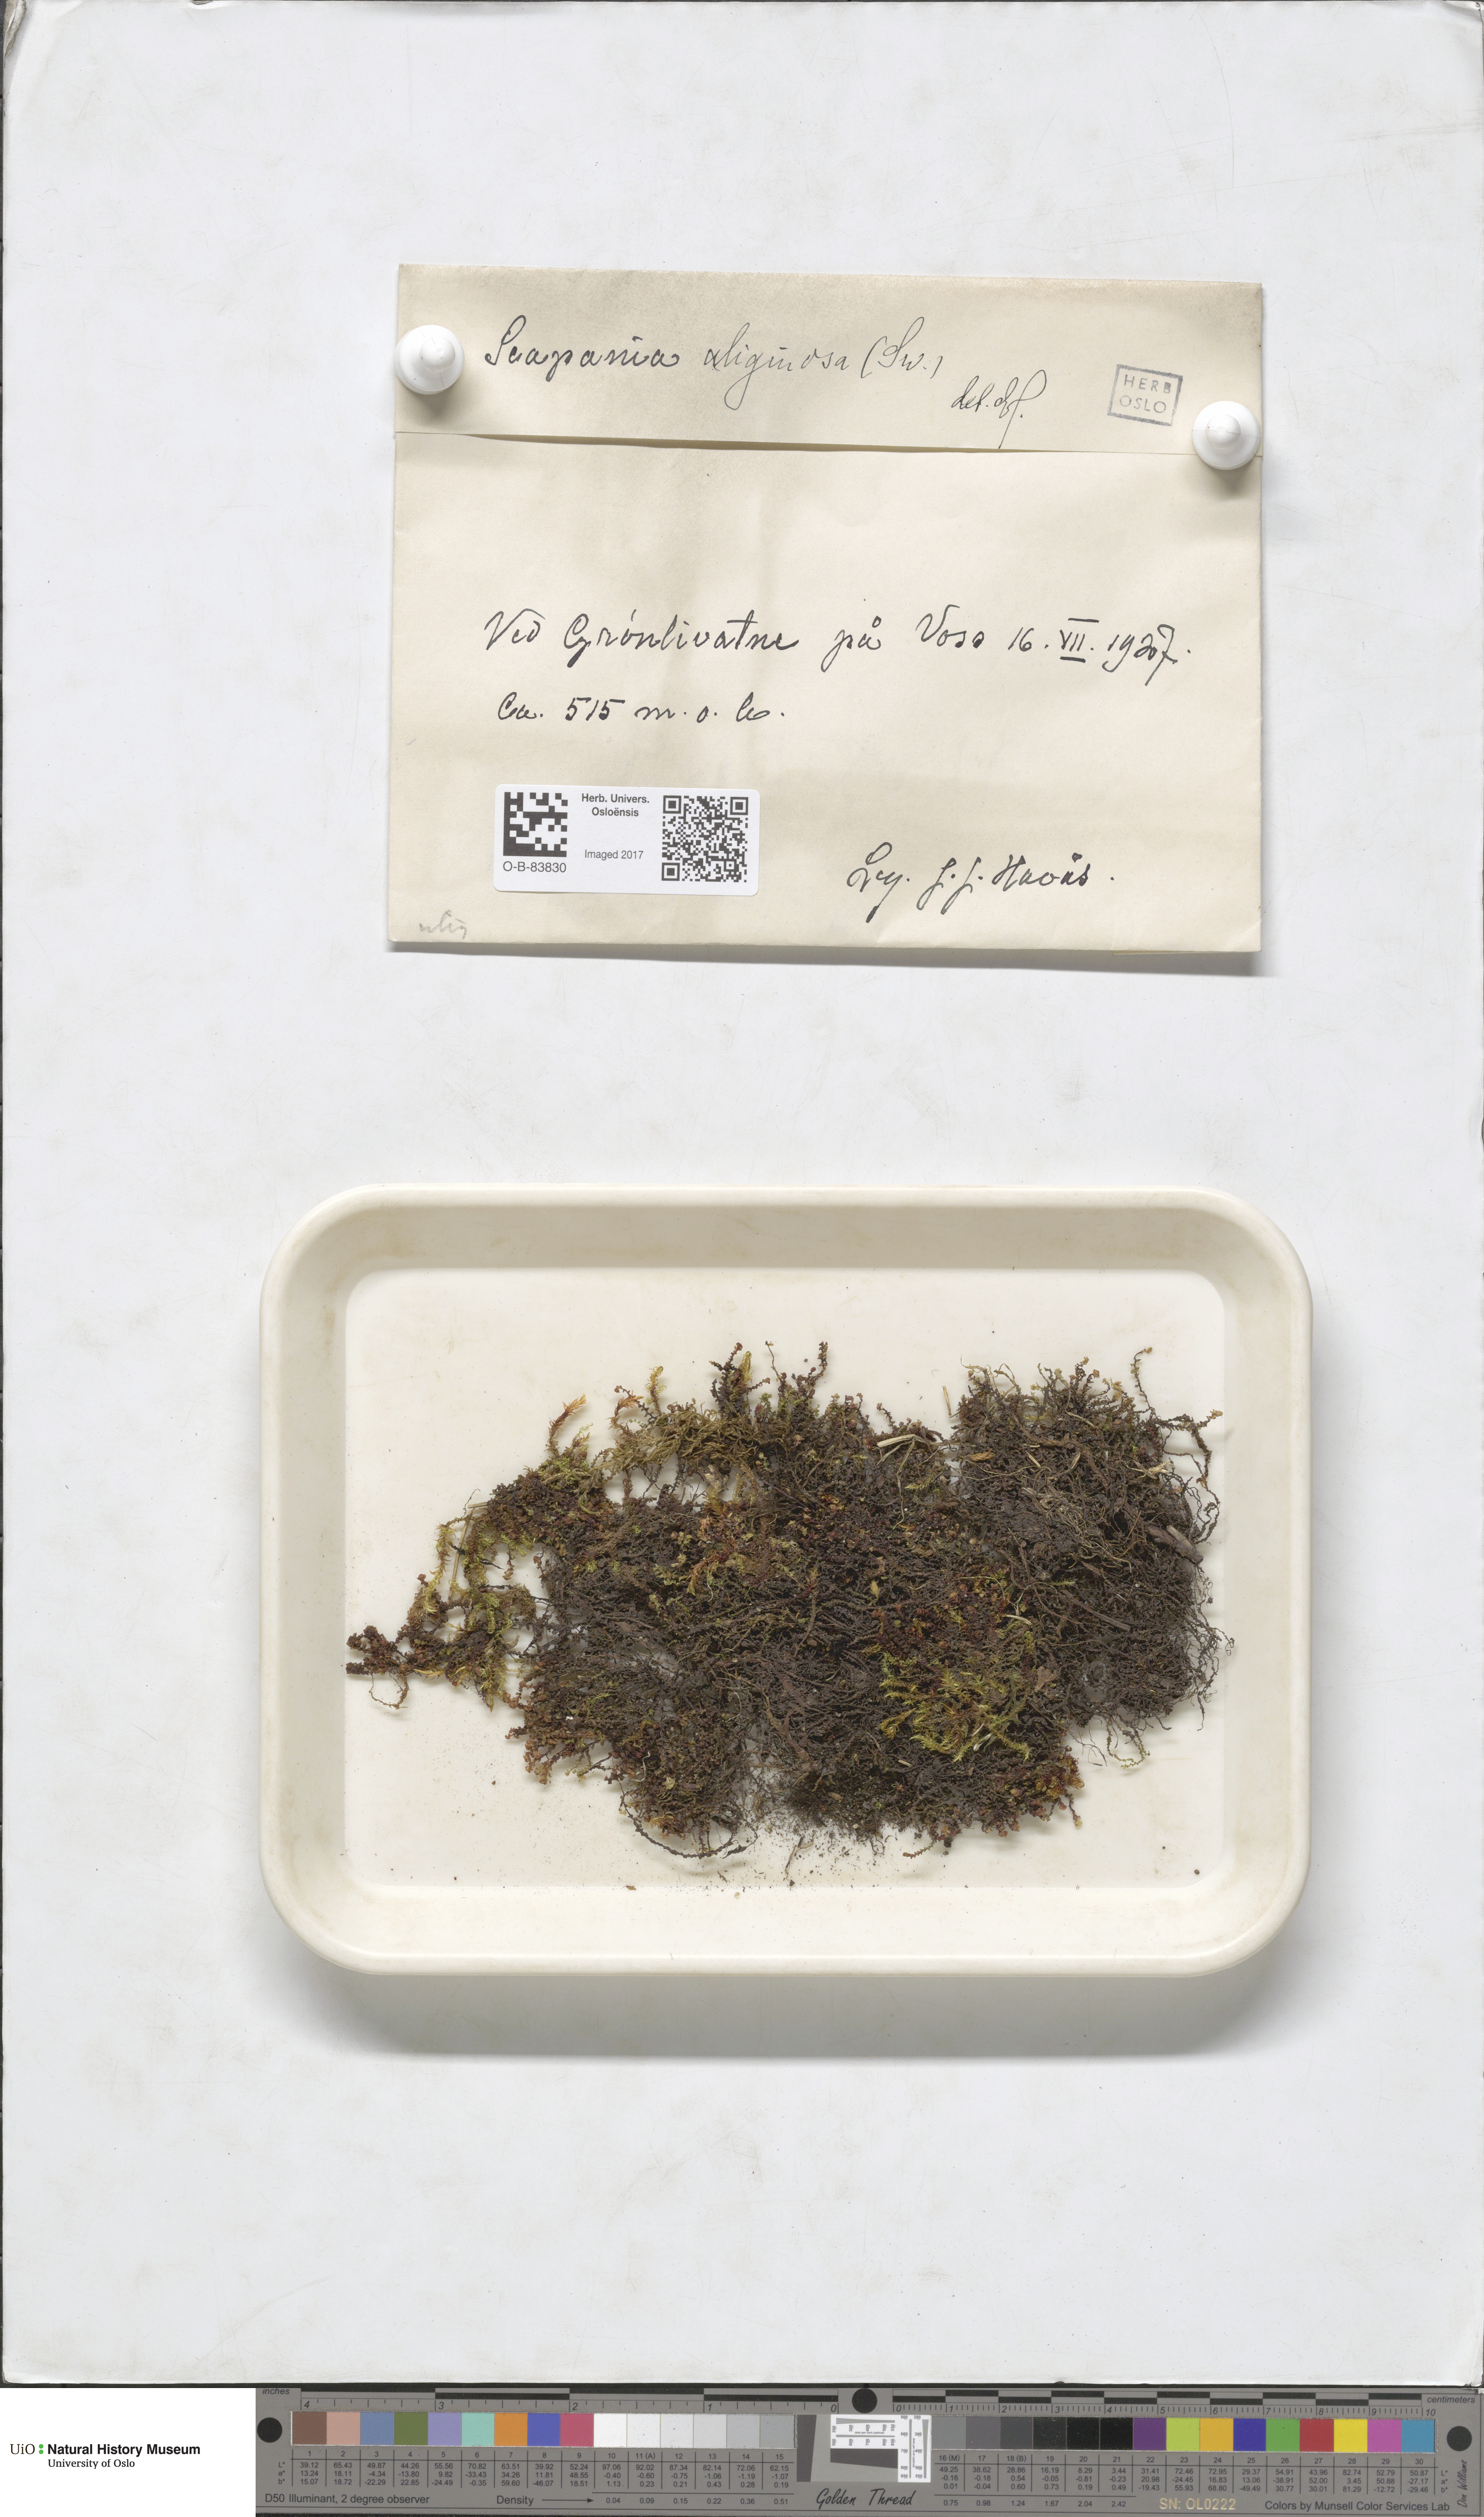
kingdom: Plantae
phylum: Marchantiophyta
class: Jungermanniopsida
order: Jungermanniales
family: Scapaniaceae
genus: Scapania
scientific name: Scapania uliginosa
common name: Marsh earwort
